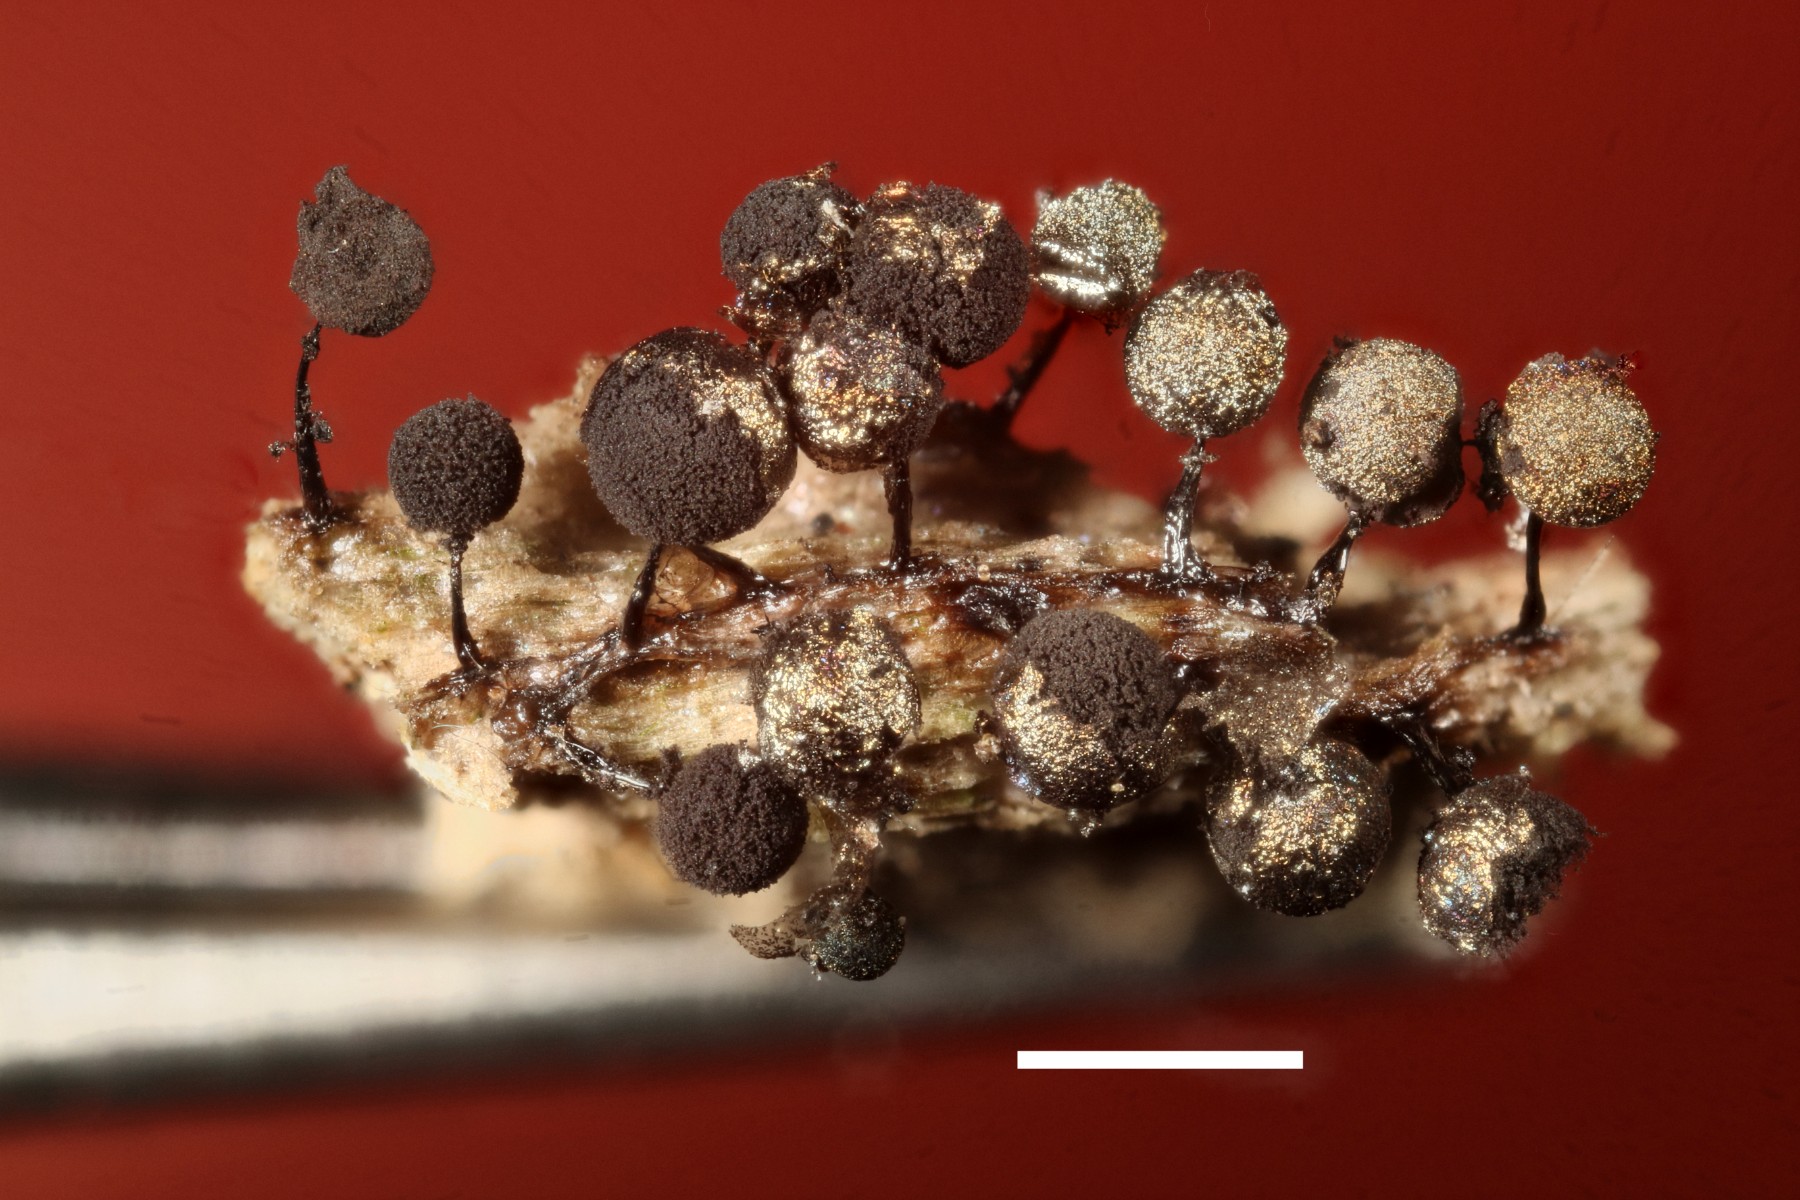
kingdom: Protozoa
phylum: Mycetozoa
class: Myxomycetes
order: Stemonitidales
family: Stemonitidaceae
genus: Collaria
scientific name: Collaria arcyrionema
